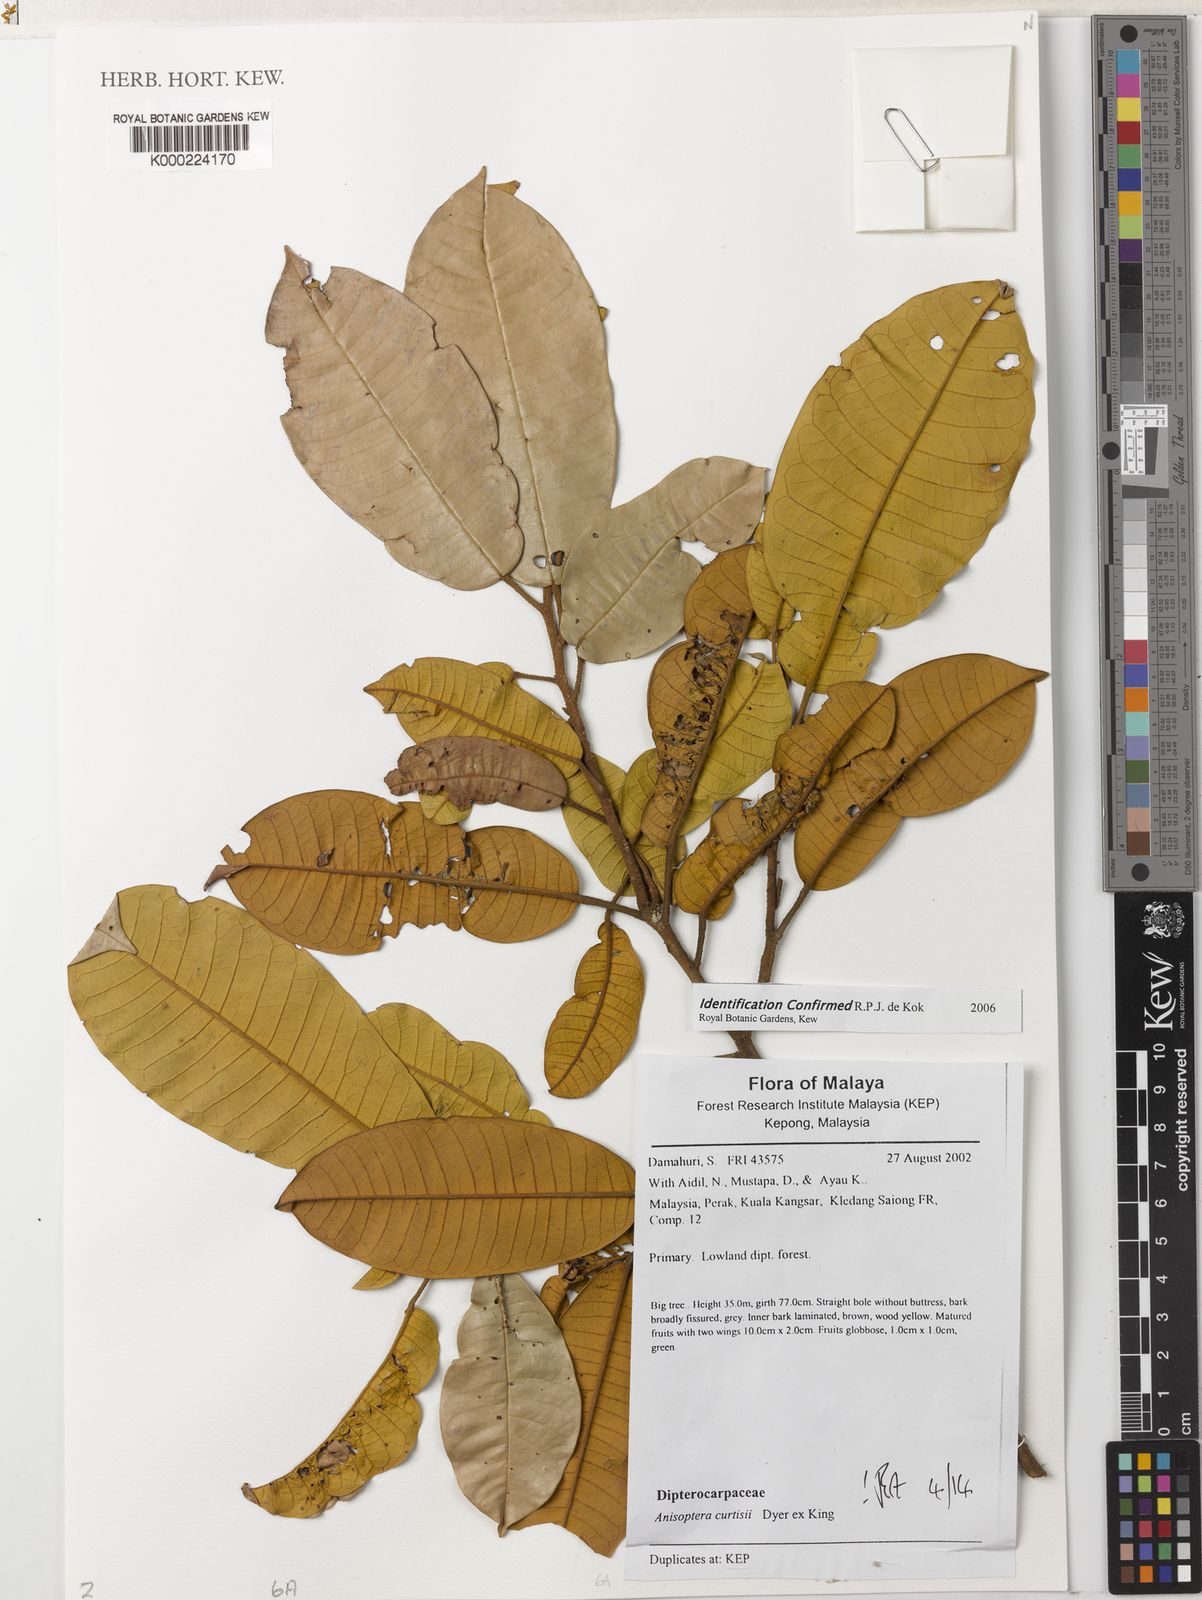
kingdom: Plantae
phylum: Tracheophyta
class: Magnoliopsida
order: Malvales
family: Dipterocarpaceae
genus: Anisoptera
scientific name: Anisoptera curtisii
